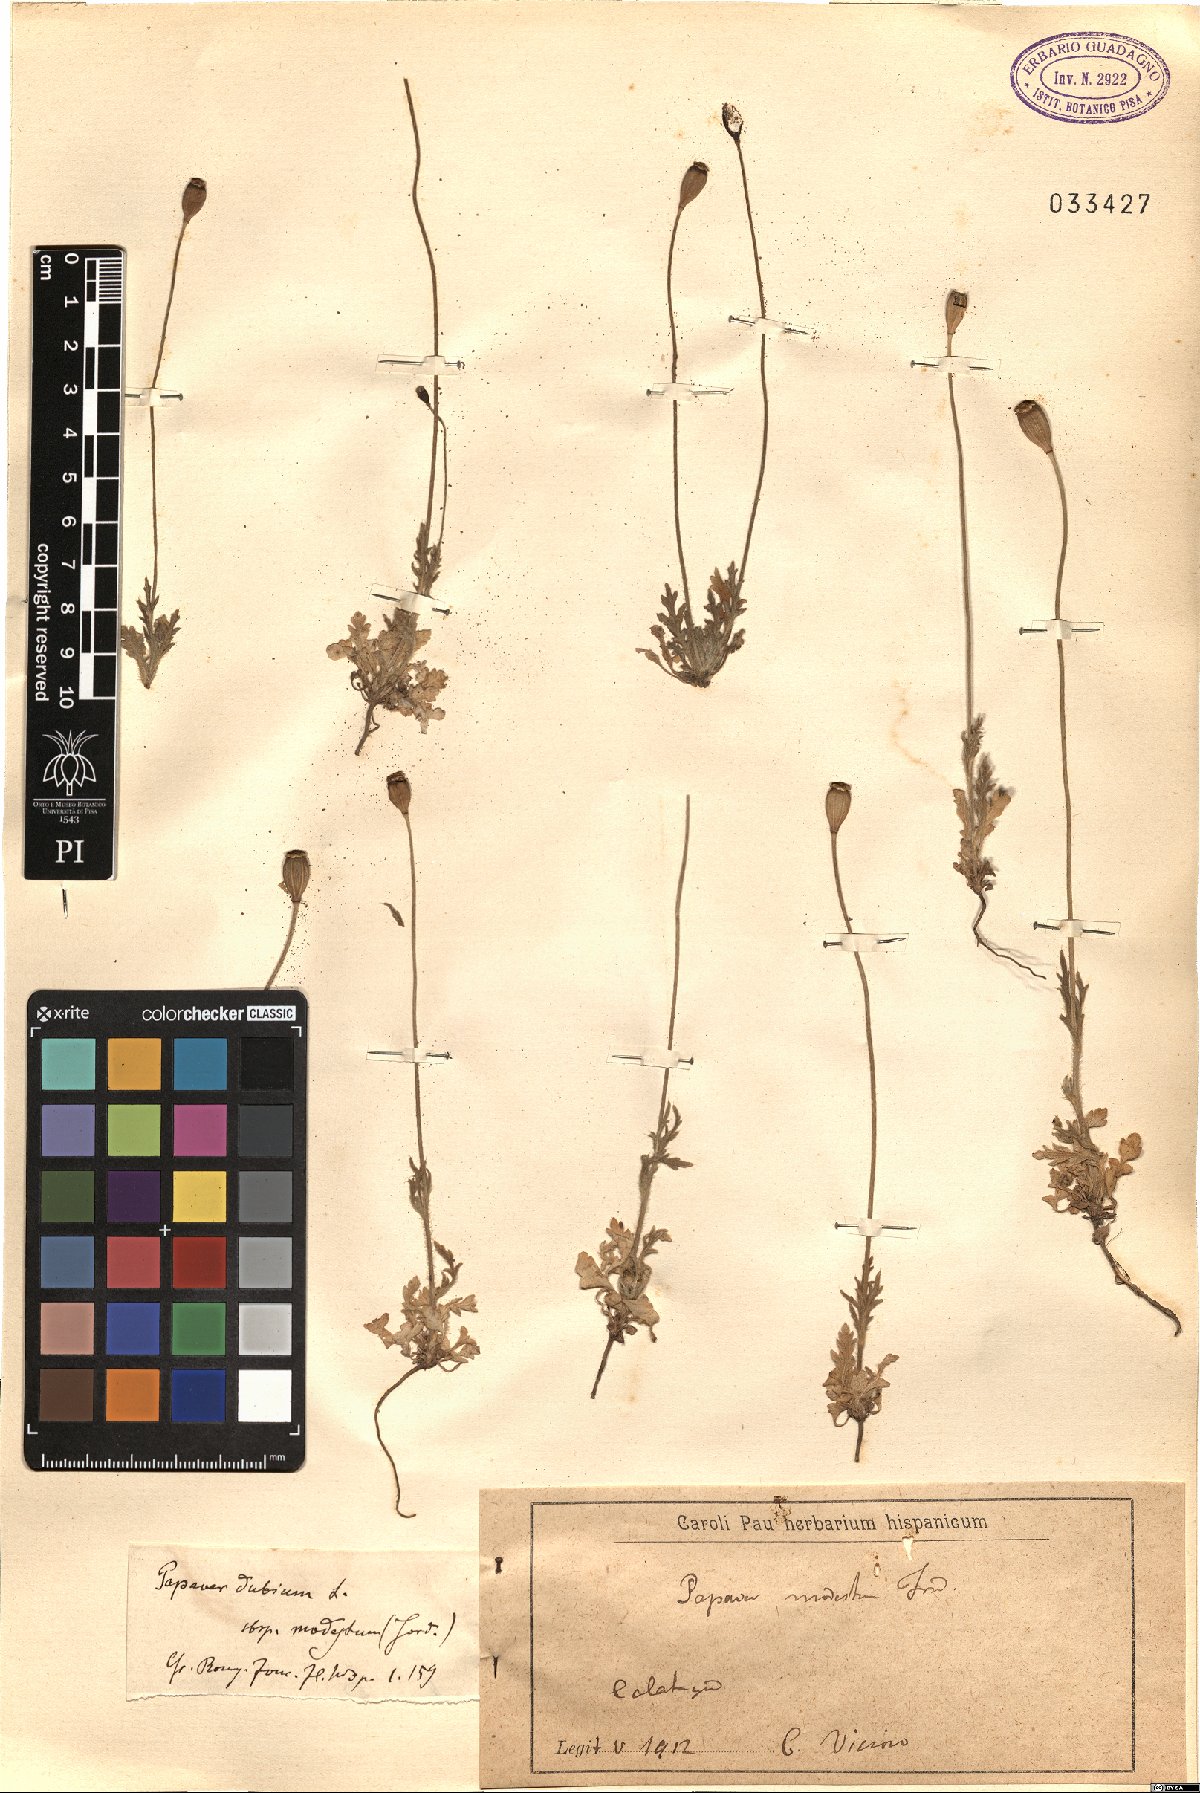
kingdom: Plantae
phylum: Tracheophyta
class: Magnoliopsida
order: Ranunculales
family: Papaveraceae
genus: Papaver
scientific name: Papaver dubium
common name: Long-headed poppy
